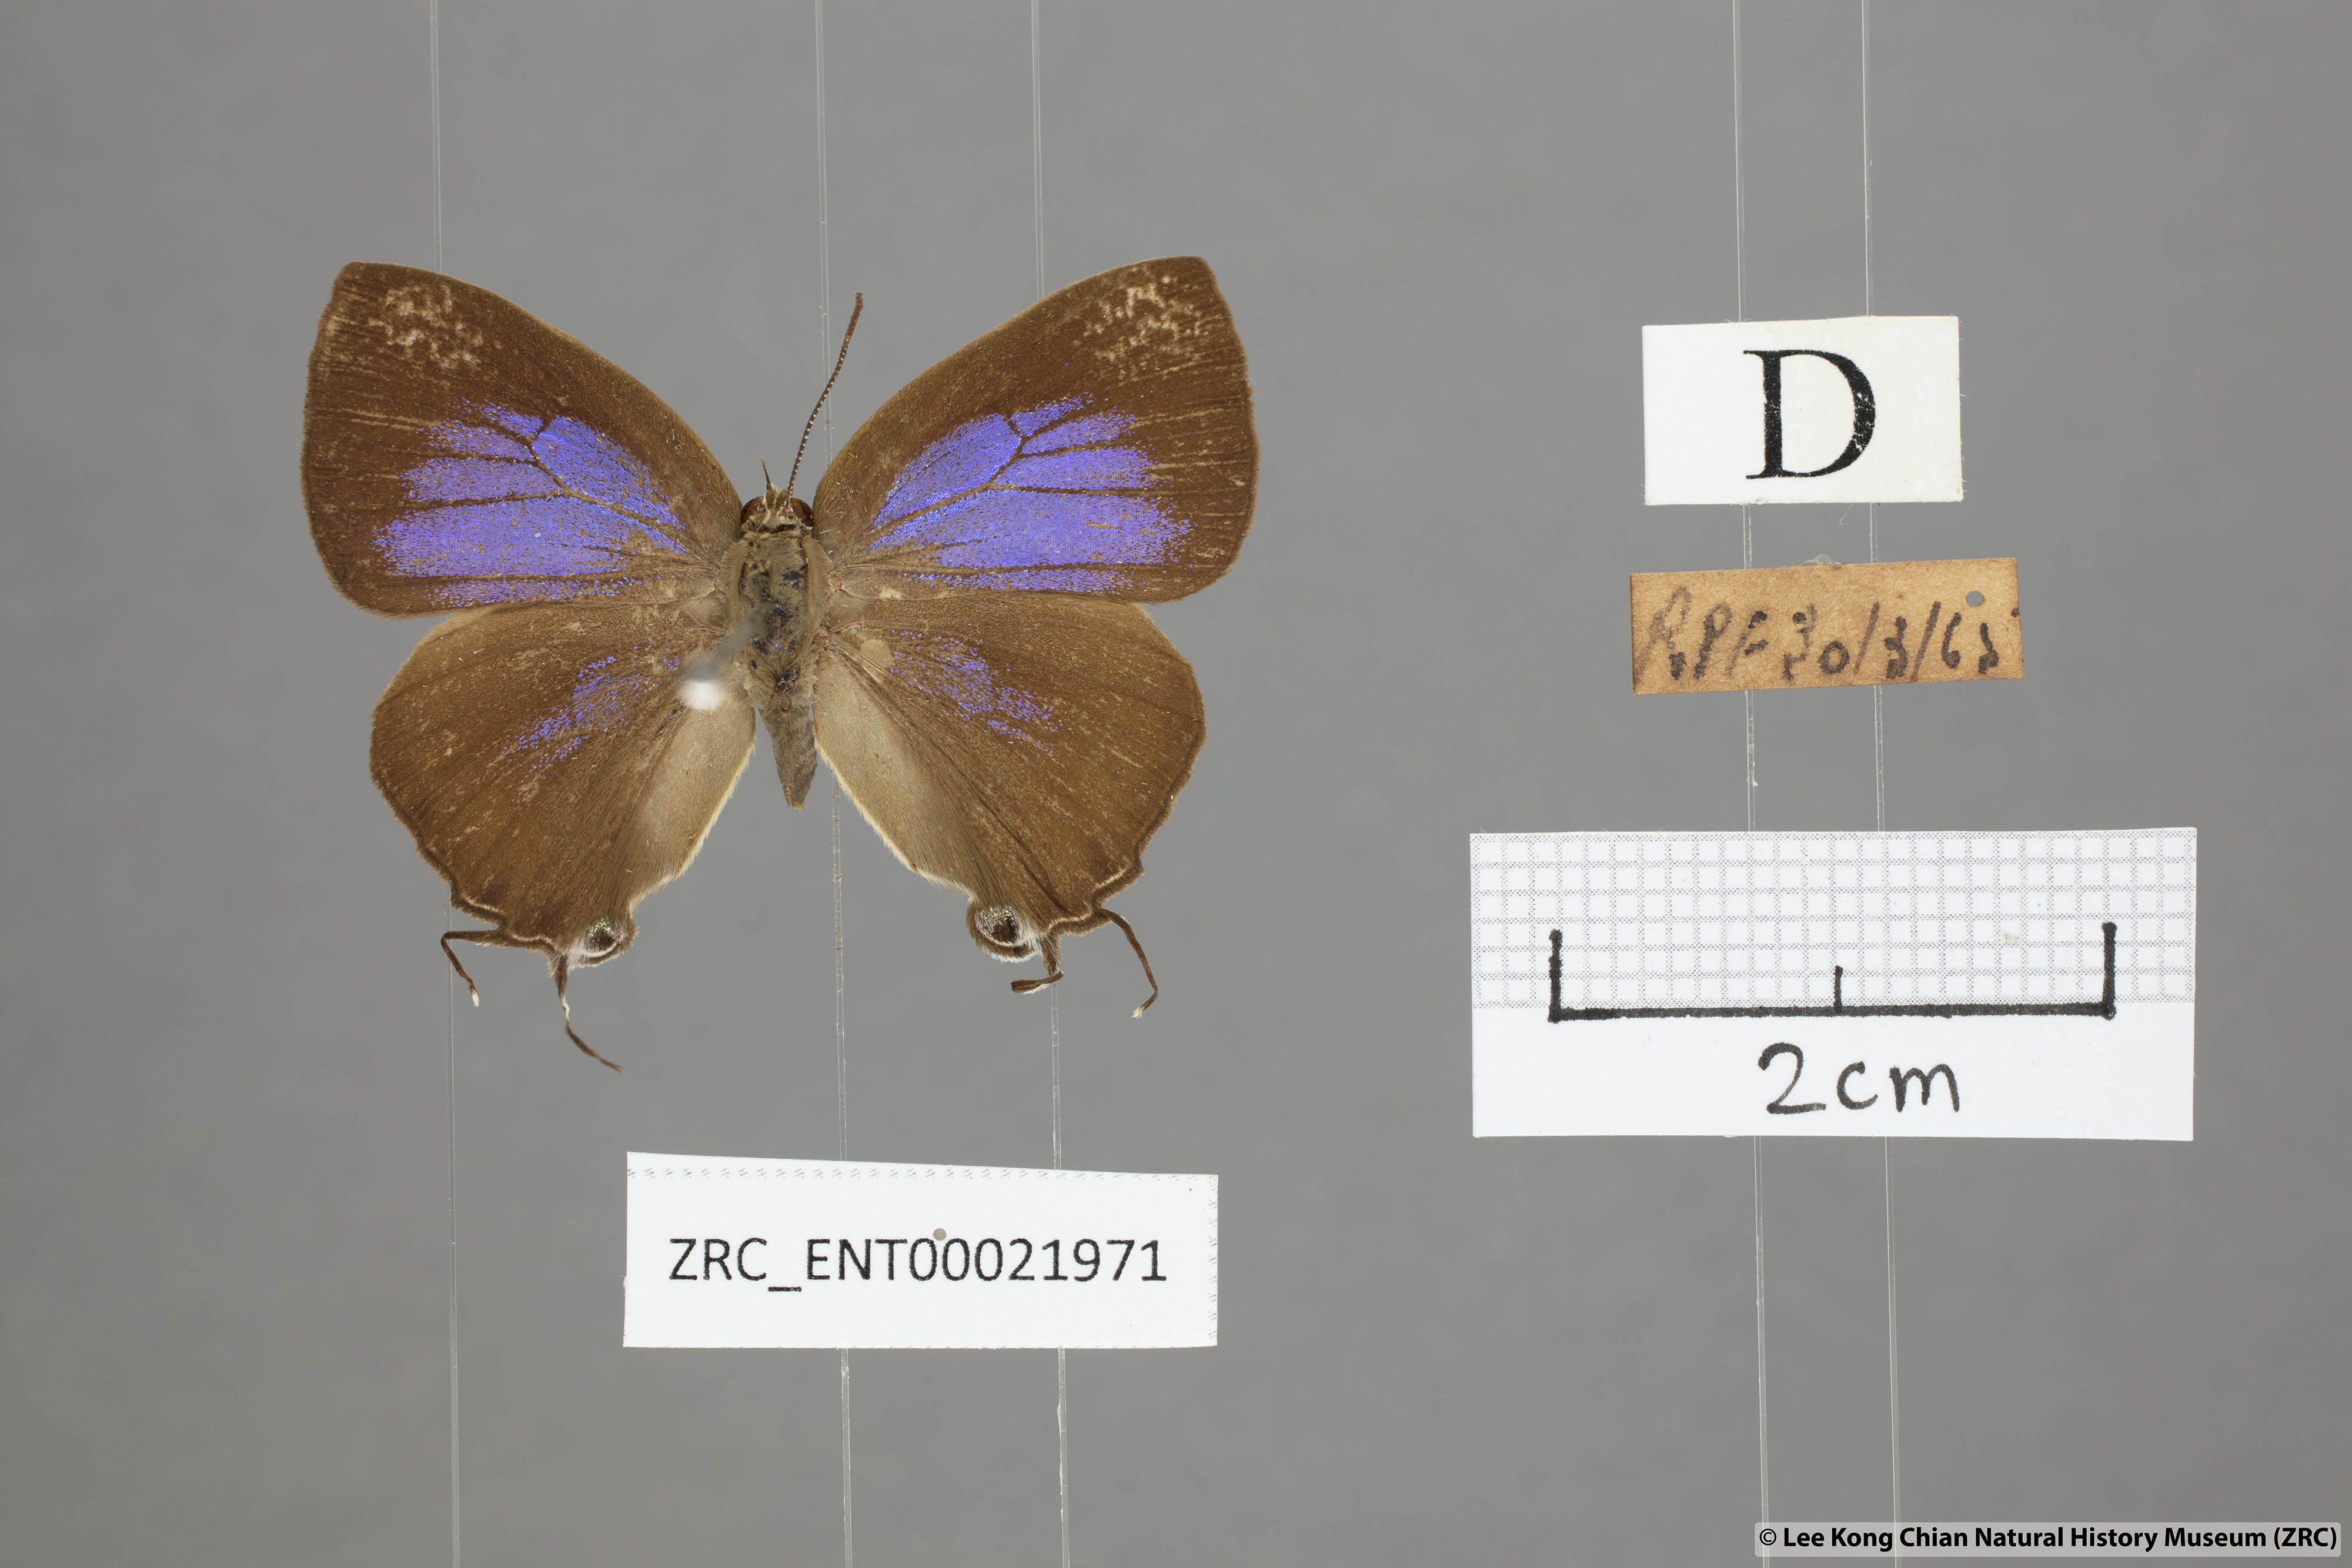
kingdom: Animalia
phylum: Arthropoda
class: Insecta
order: Lepidoptera
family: Lycaenidae
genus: Remelana
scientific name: Remelana jangala
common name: Chocolate royal
